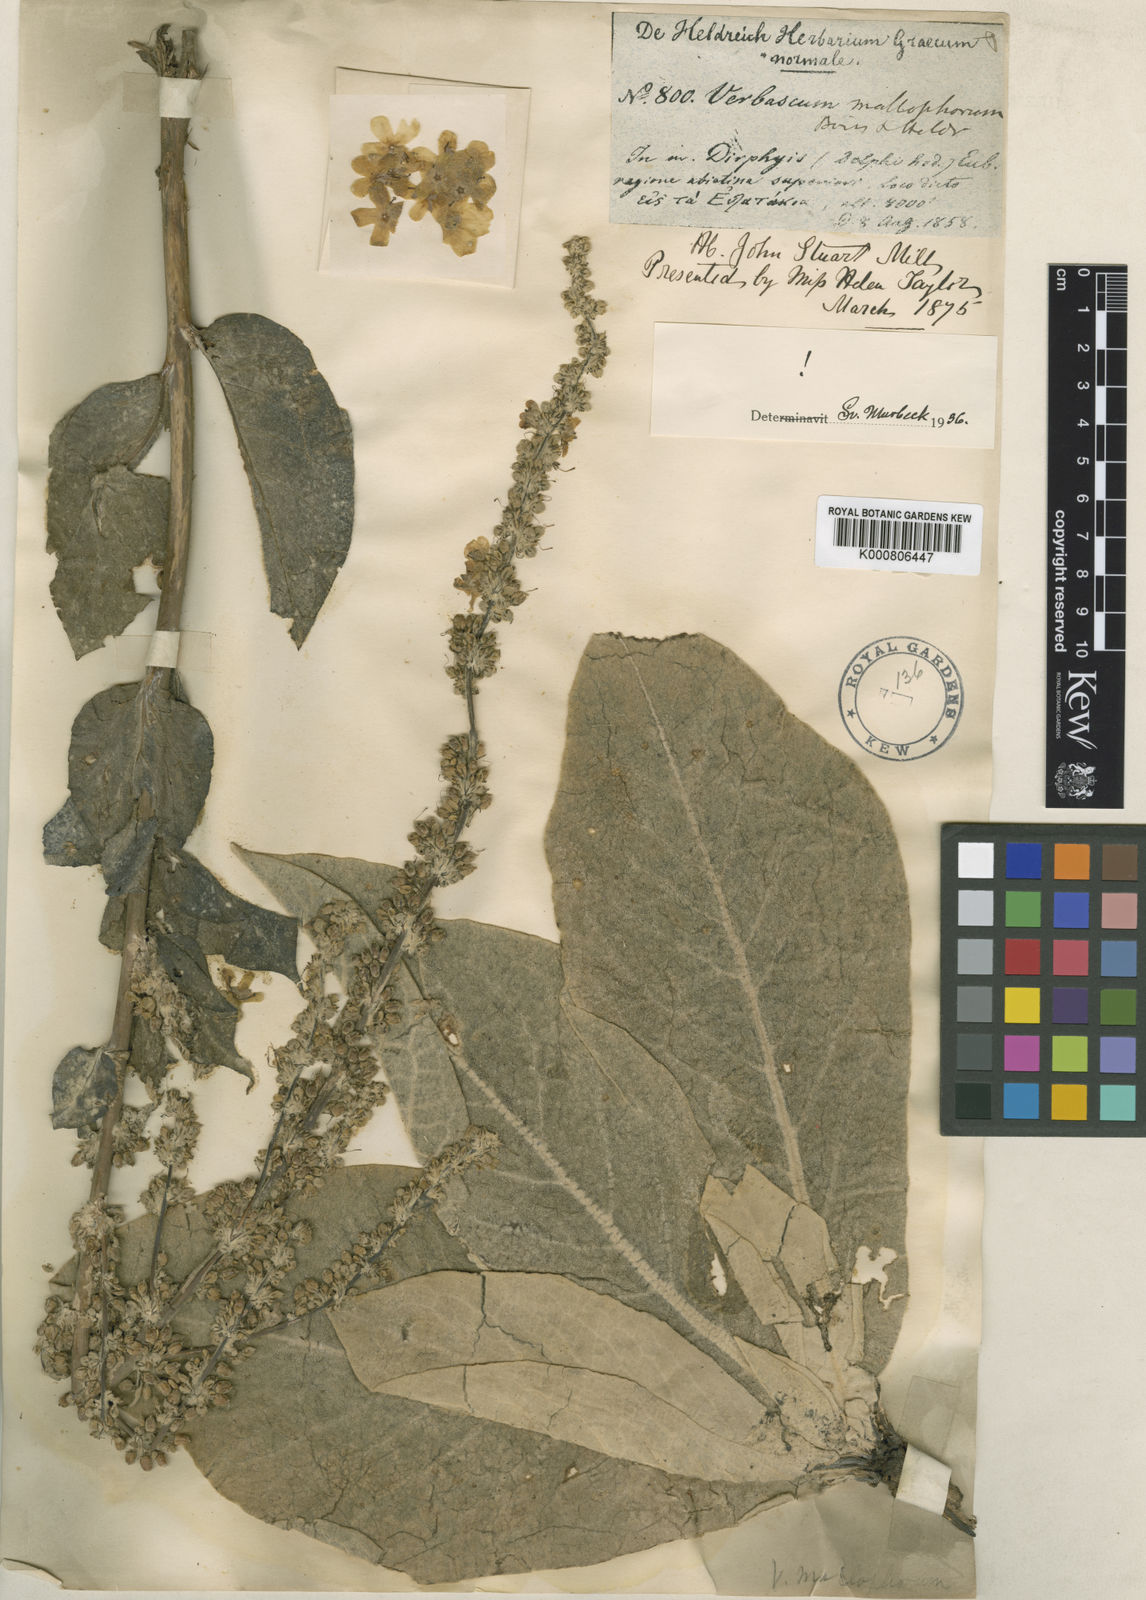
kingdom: Plantae
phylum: Tracheophyta
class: Magnoliopsida
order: Lamiales
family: Scrophulariaceae
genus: Verbascum
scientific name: Verbascum mallophorum
